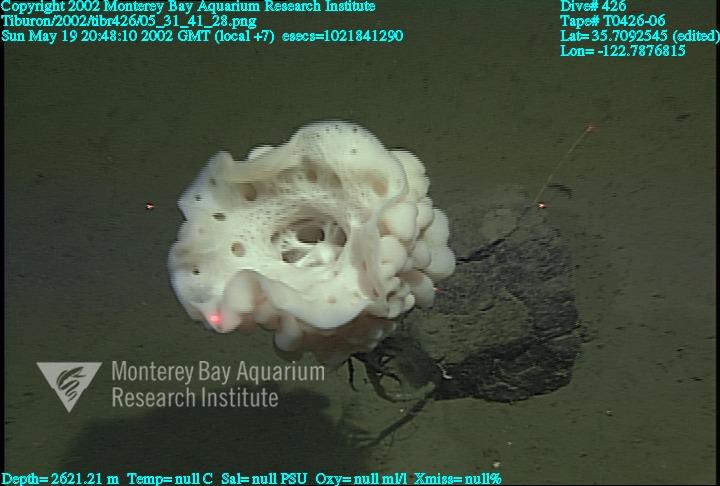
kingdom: Animalia
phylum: Porifera
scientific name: Porifera
